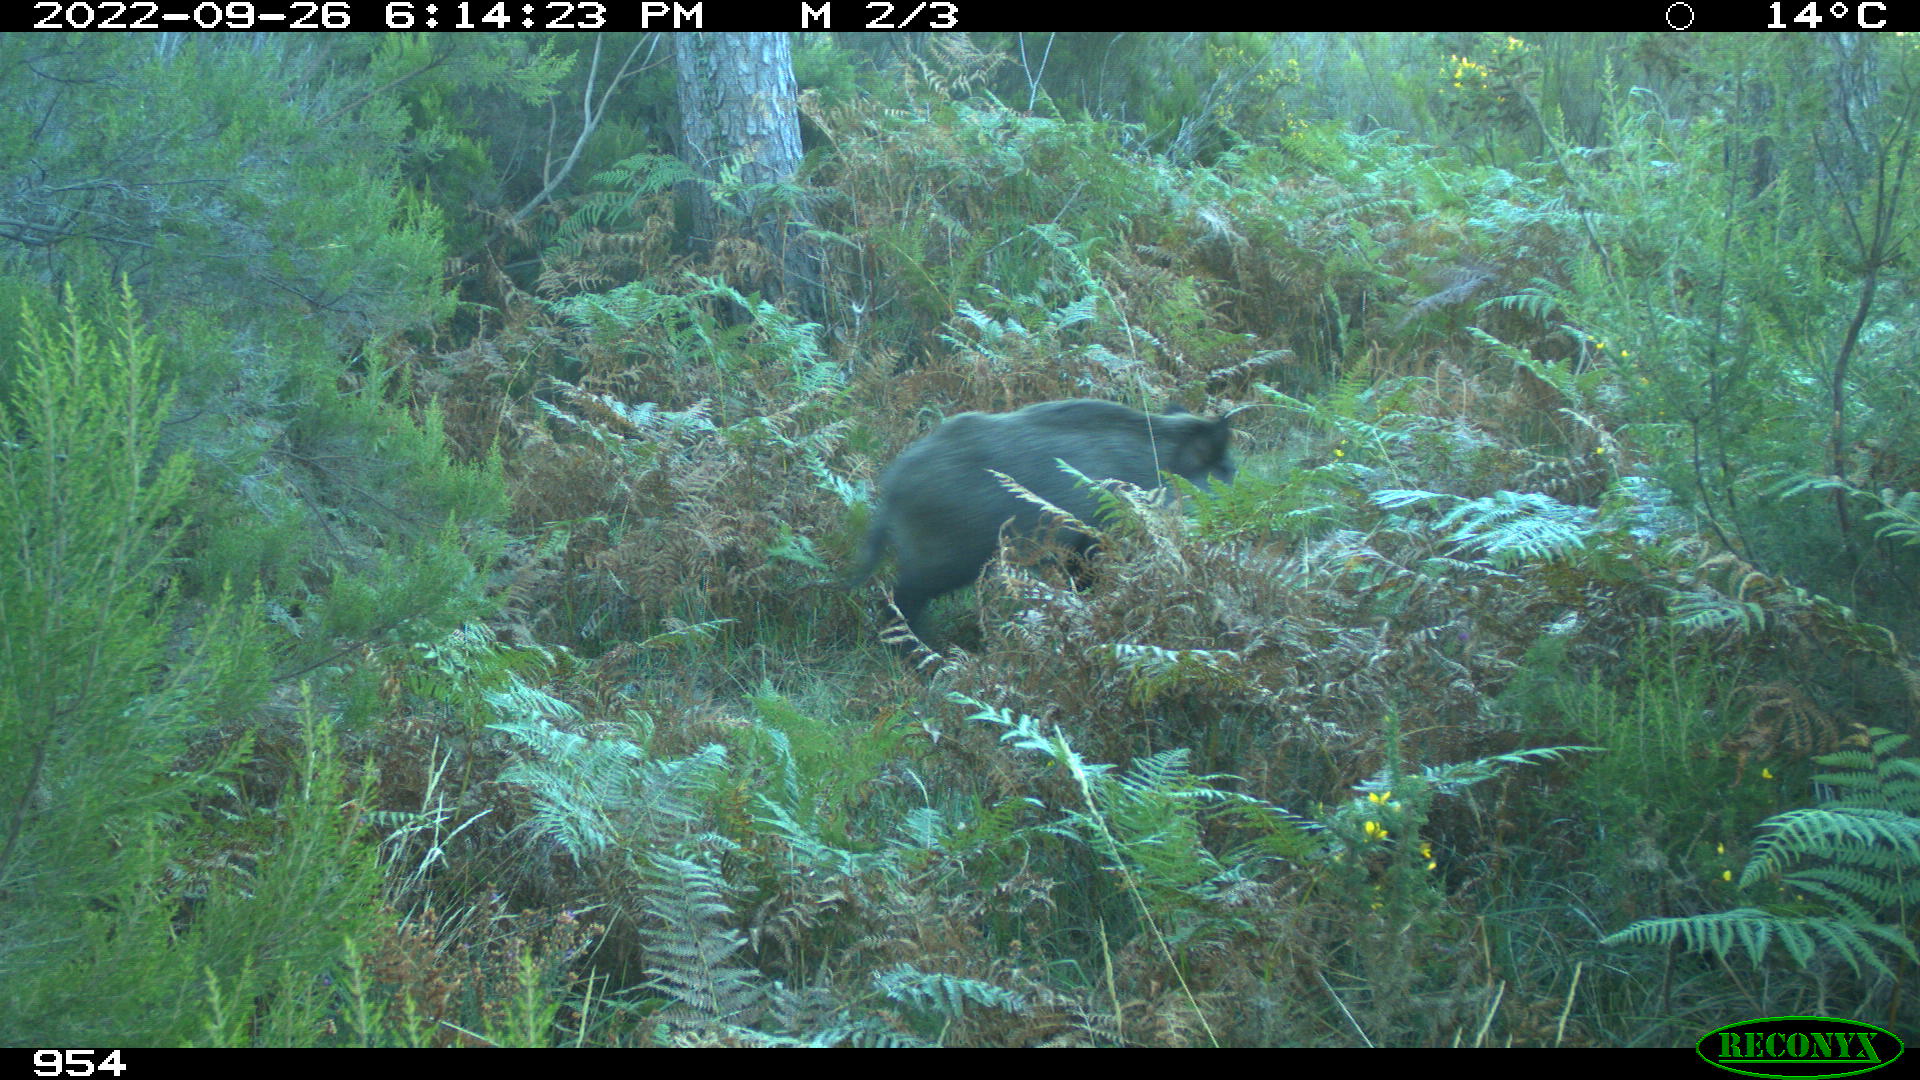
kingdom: Animalia
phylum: Chordata
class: Mammalia
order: Artiodactyla
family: Suidae
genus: Sus
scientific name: Sus scrofa
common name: Wild boar
